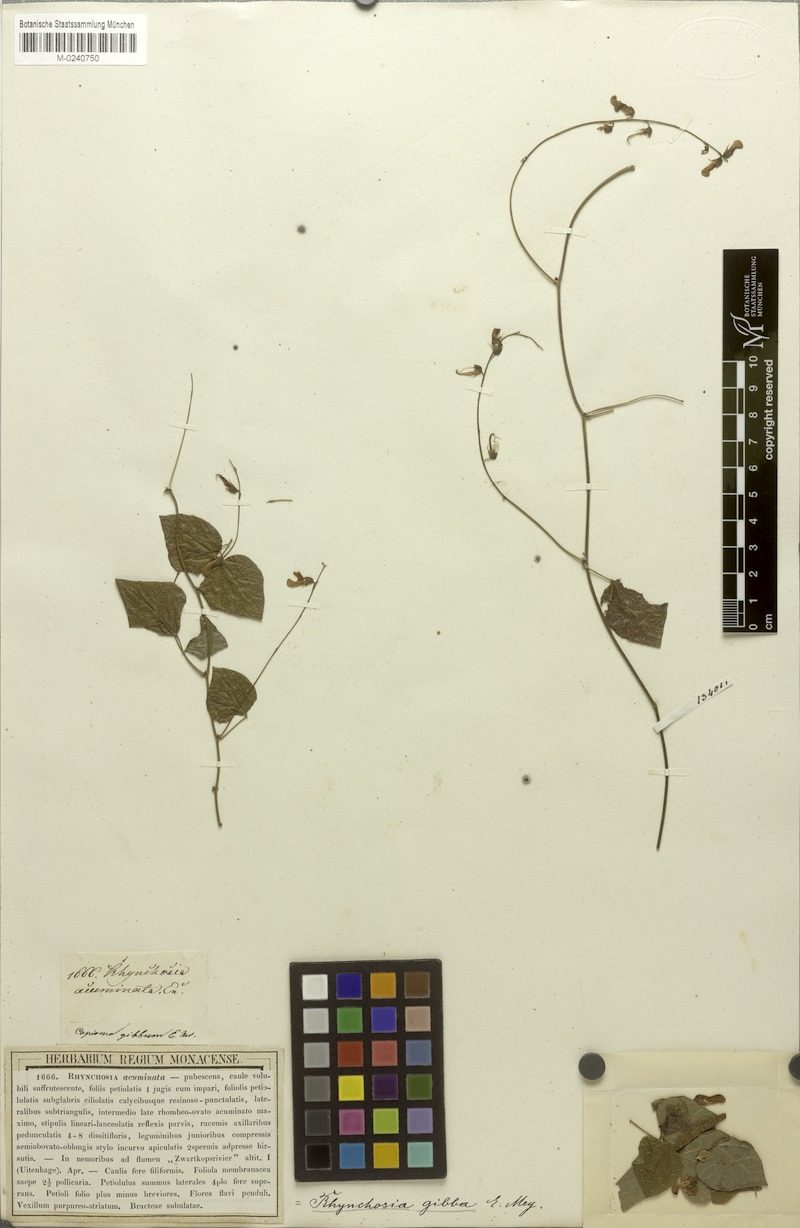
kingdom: Plantae
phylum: Tracheophyta
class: Magnoliopsida
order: Fabales
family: Fabaceae
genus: Rhynchosia
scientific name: Rhynchosia caribaea
